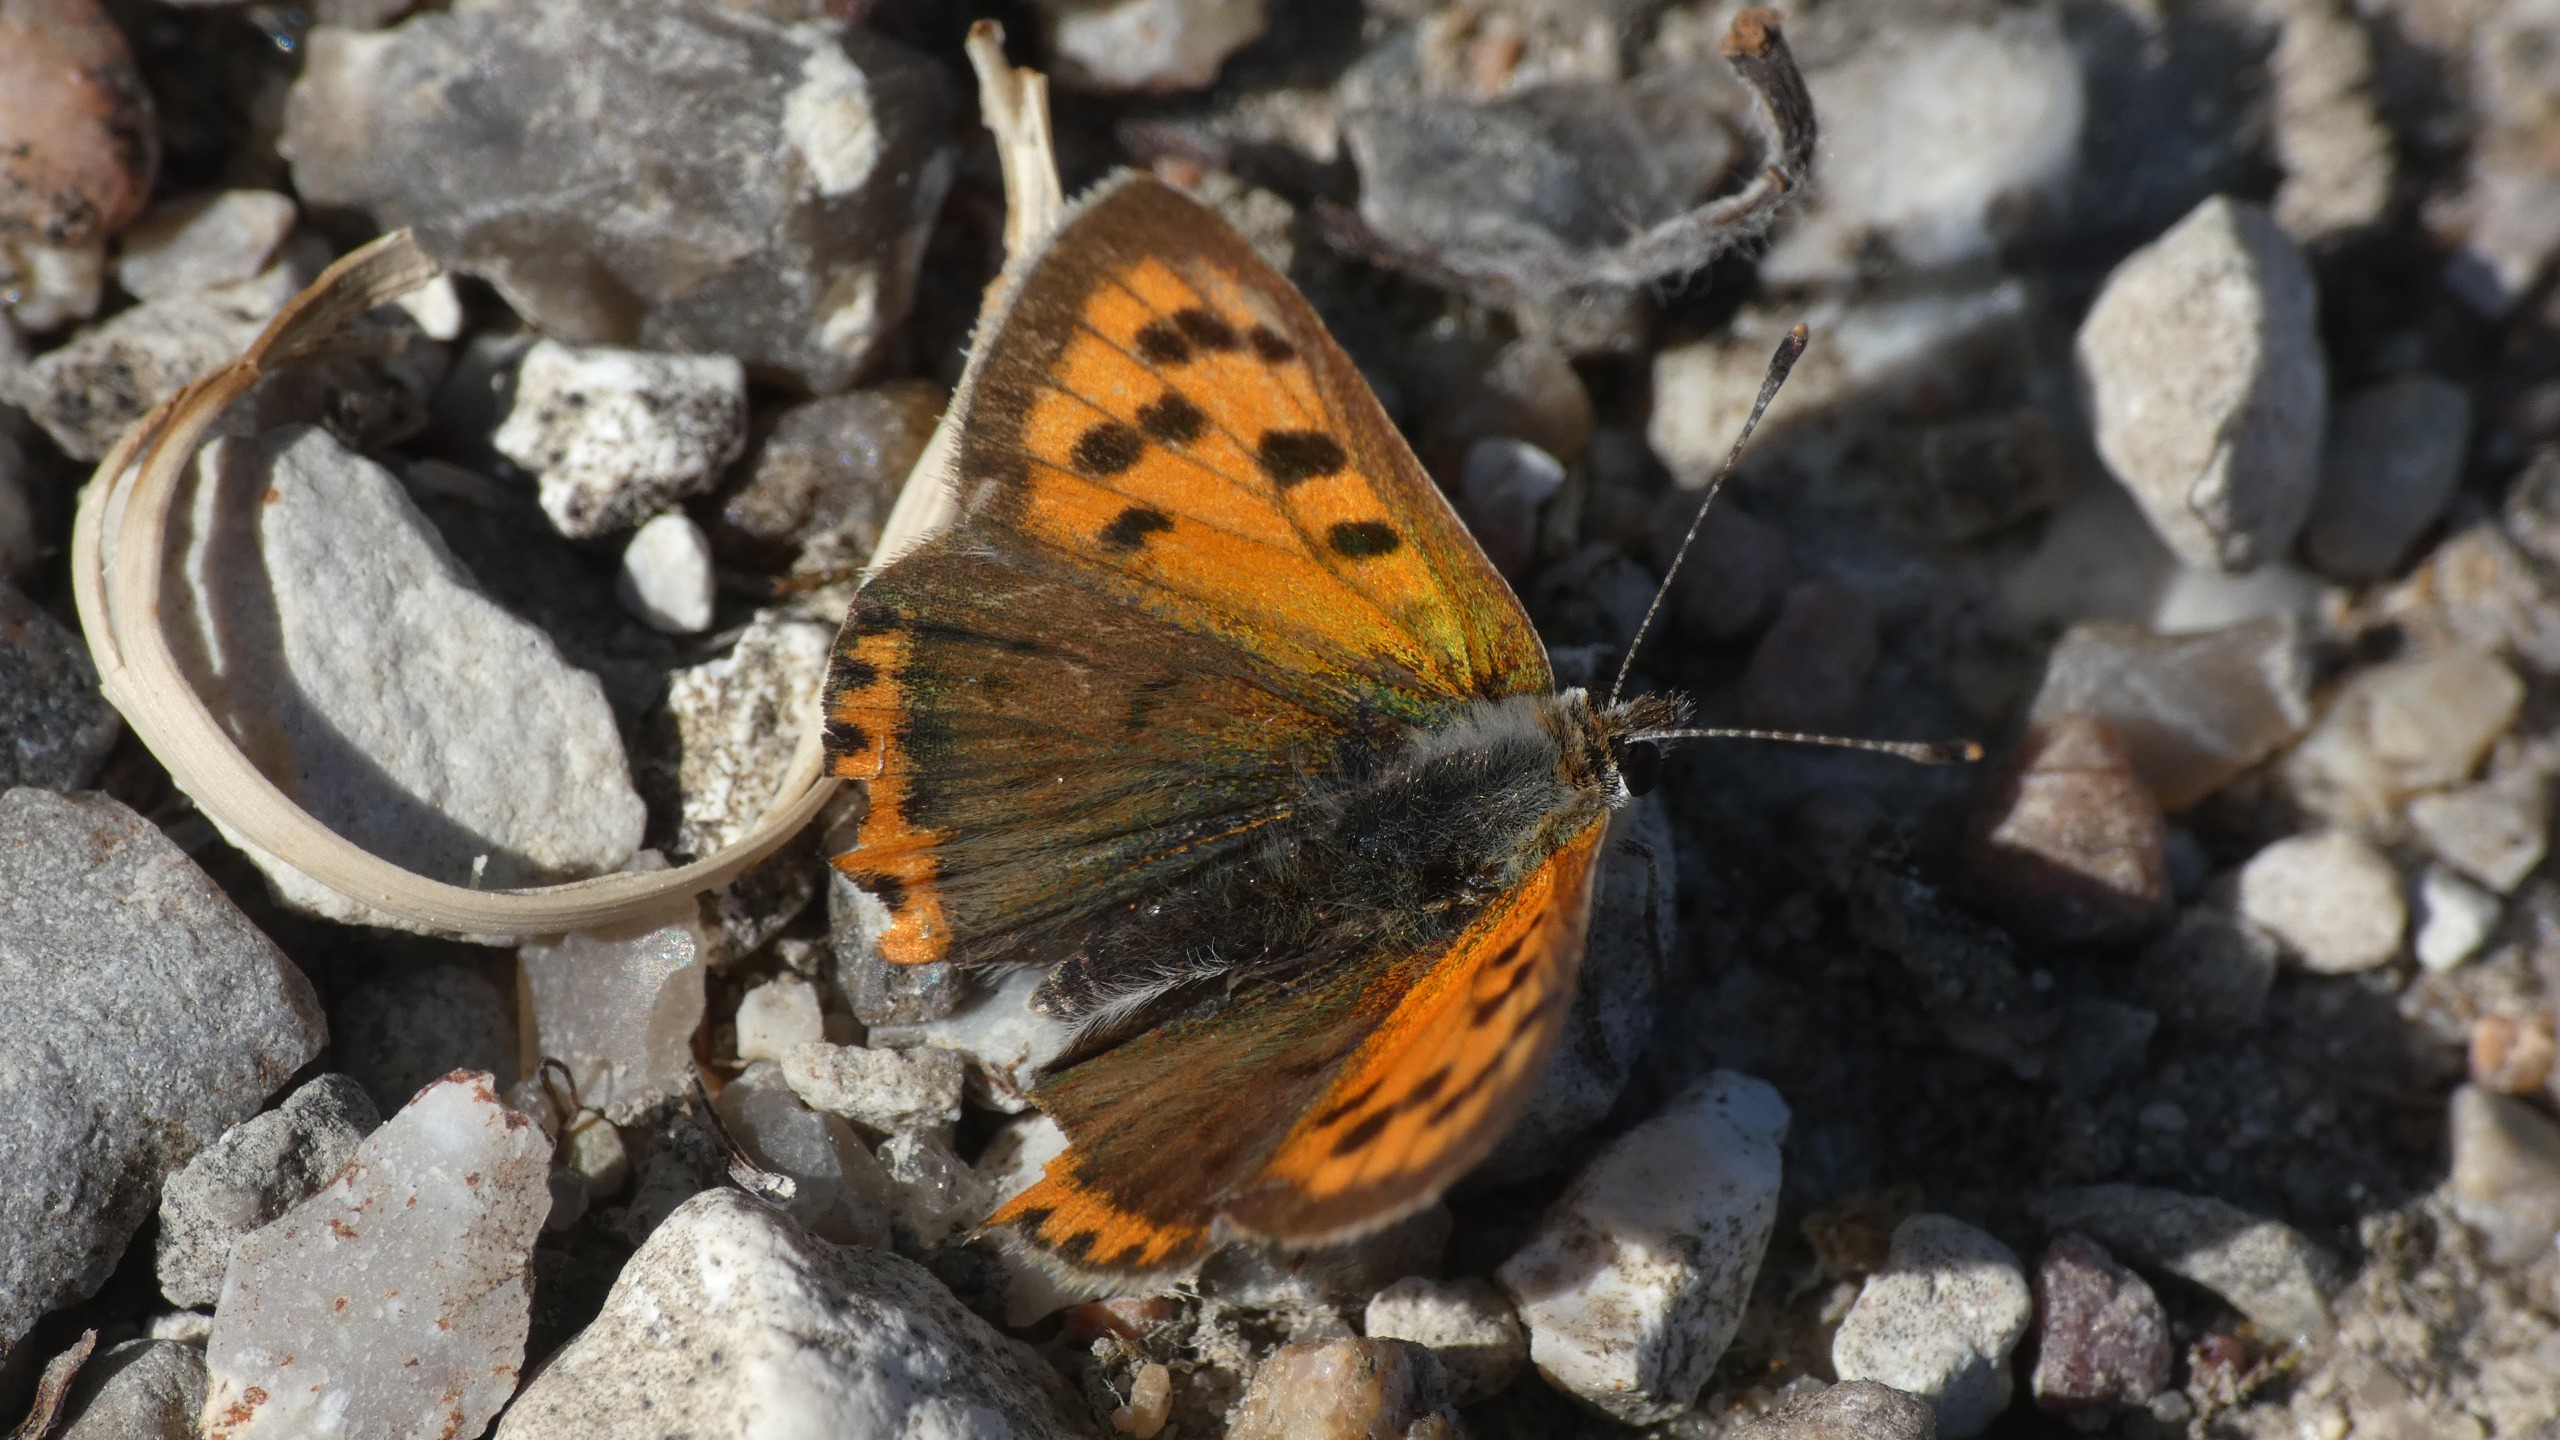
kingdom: Animalia
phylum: Arthropoda
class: Insecta
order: Lepidoptera
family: Lycaenidae
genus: Lycaena
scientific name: Lycaena phlaeas
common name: Lille ildfugl
